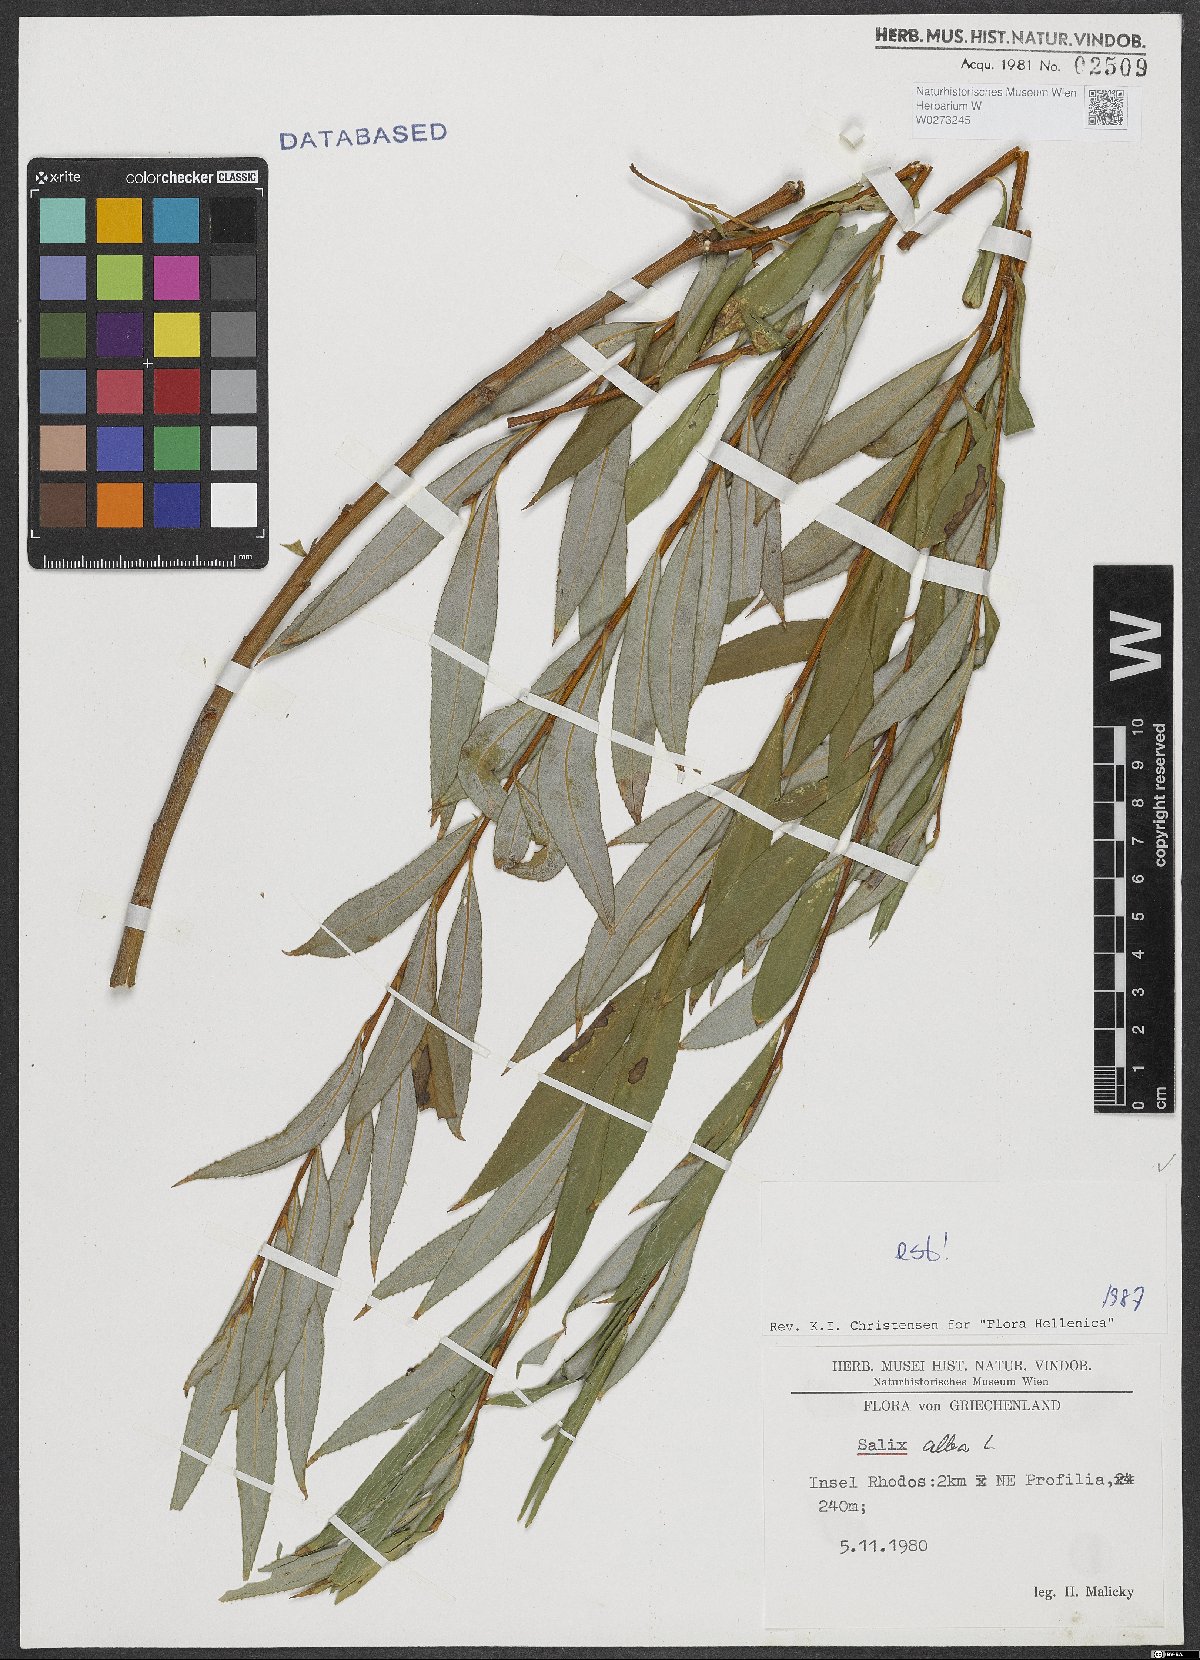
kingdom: Plantae
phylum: Tracheophyta
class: Magnoliopsida
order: Malpighiales
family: Salicaceae
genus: Salix
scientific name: Salix alba
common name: White willow
